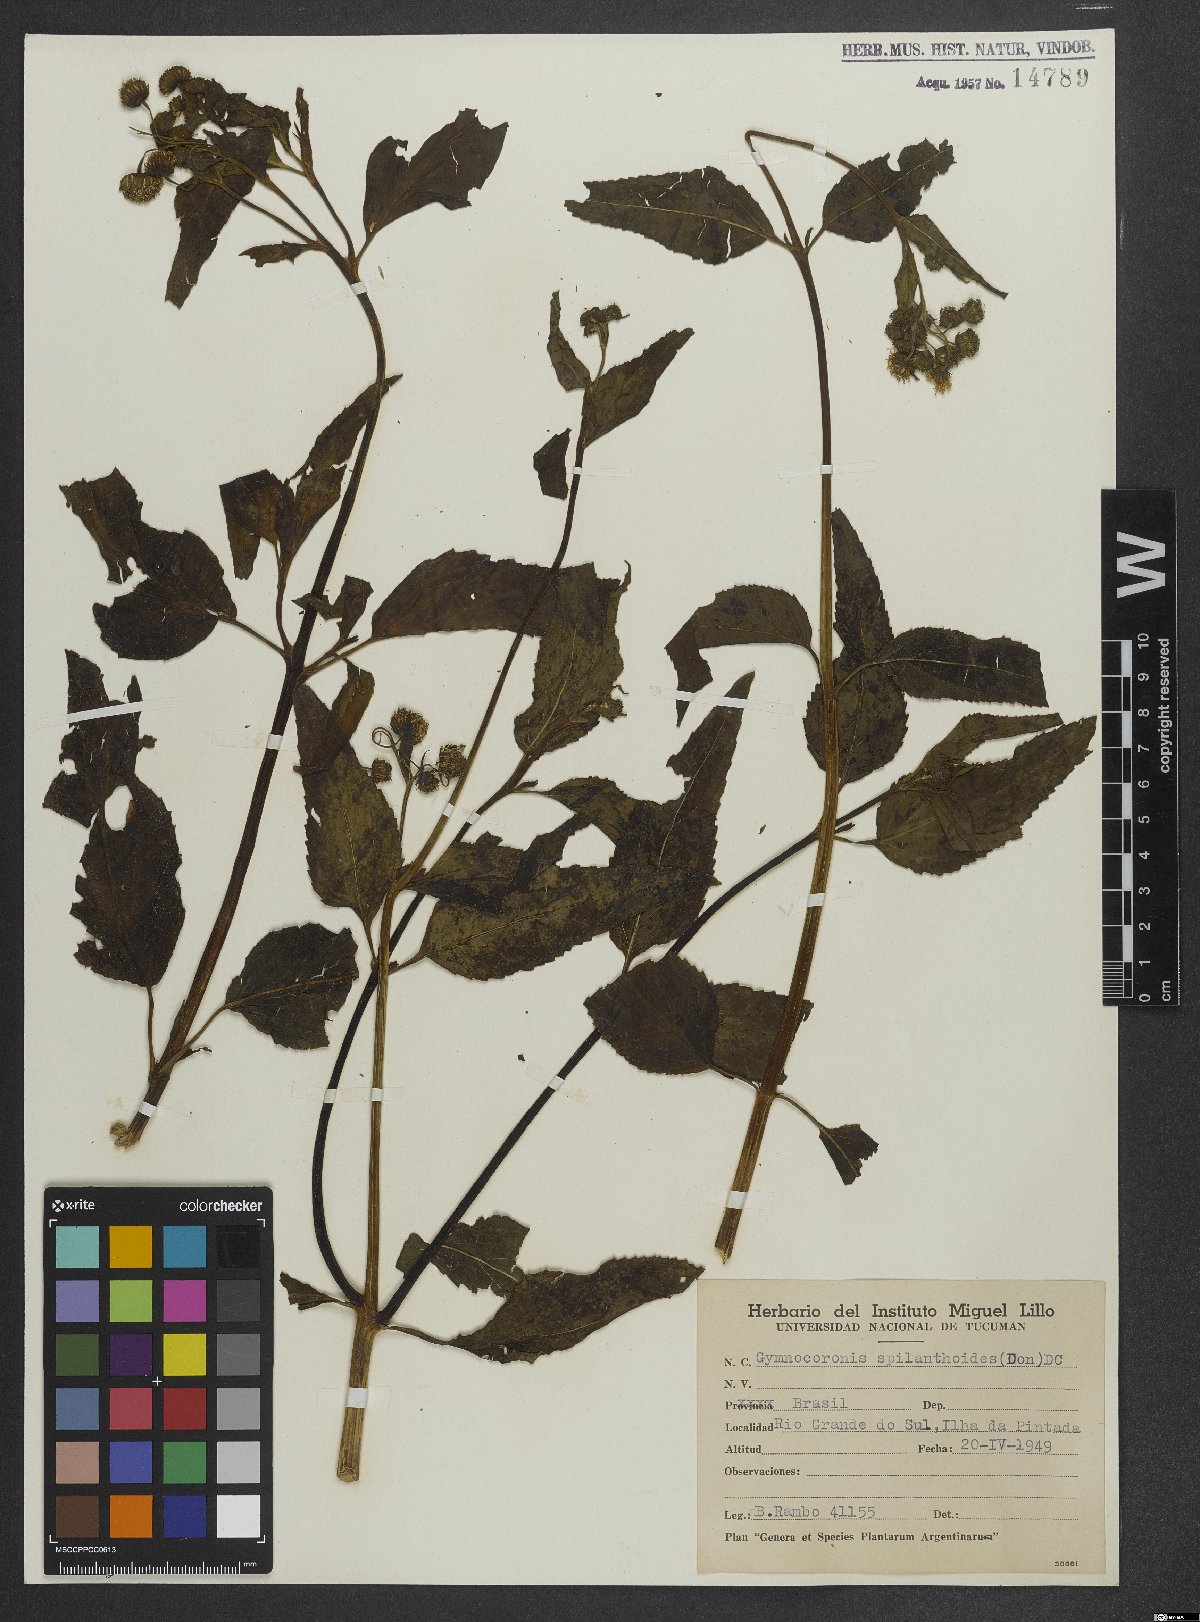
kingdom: Plantae
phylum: Tracheophyta
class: Magnoliopsida
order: Asterales
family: Asteraceae
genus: Gymnocoronis
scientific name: Gymnocoronis spilanthoides
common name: Senegal teaplant
